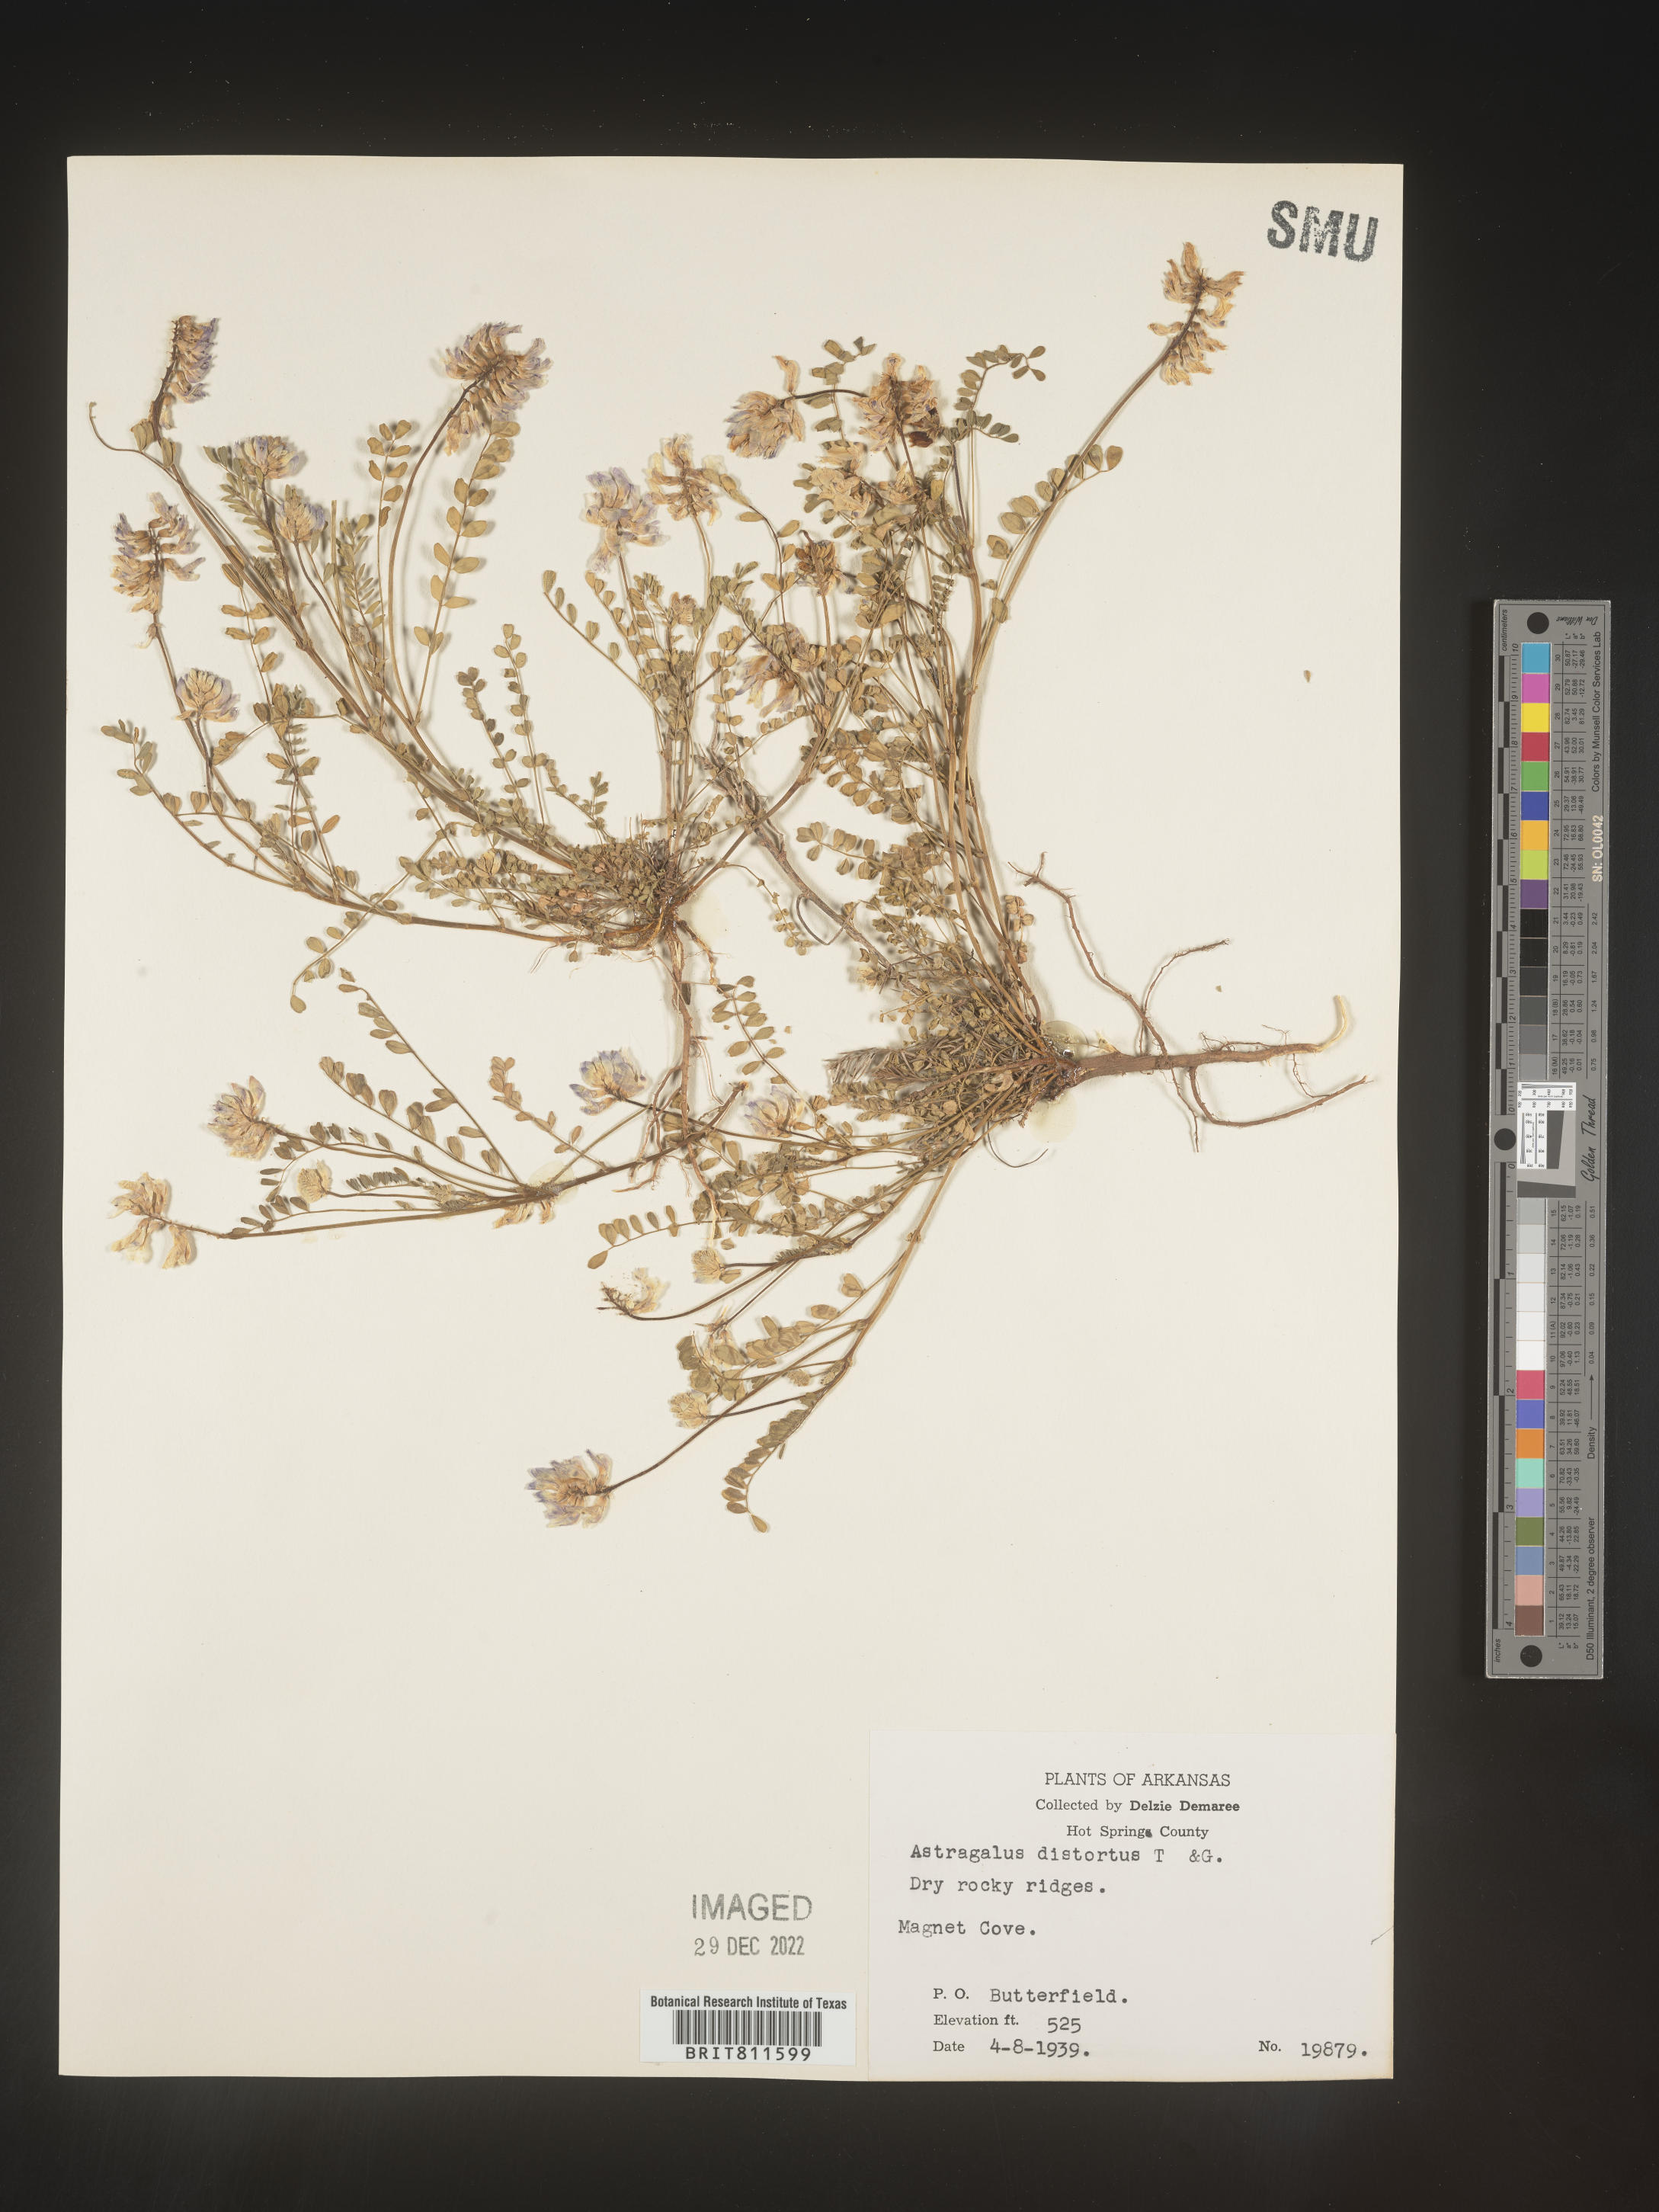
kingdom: Plantae
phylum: Tracheophyta
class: Magnoliopsida
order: Fabales
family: Fabaceae
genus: Astragalus
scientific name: Astragalus distortus
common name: Ozark milk-vetch
